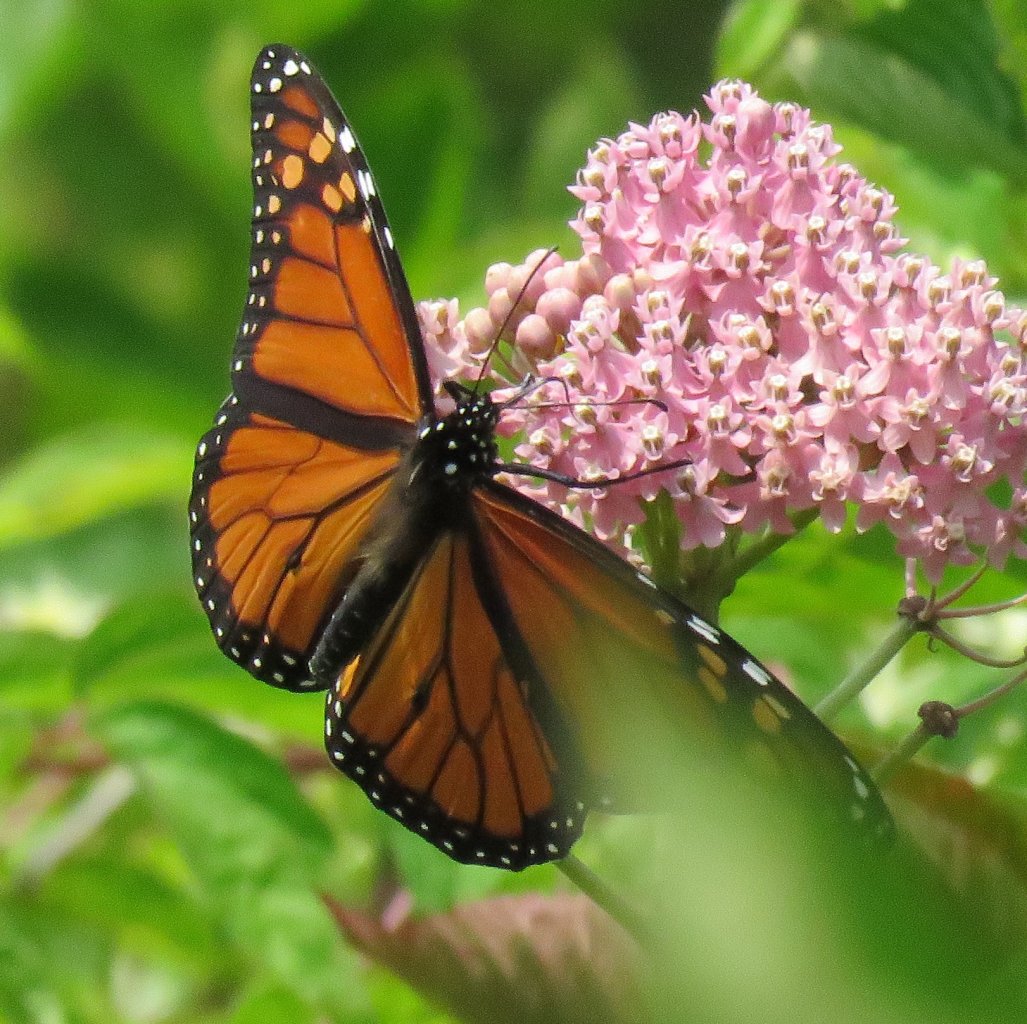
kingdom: Animalia
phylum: Arthropoda
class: Insecta
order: Lepidoptera
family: Nymphalidae
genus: Danaus
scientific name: Danaus plexippus
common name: Monarch
